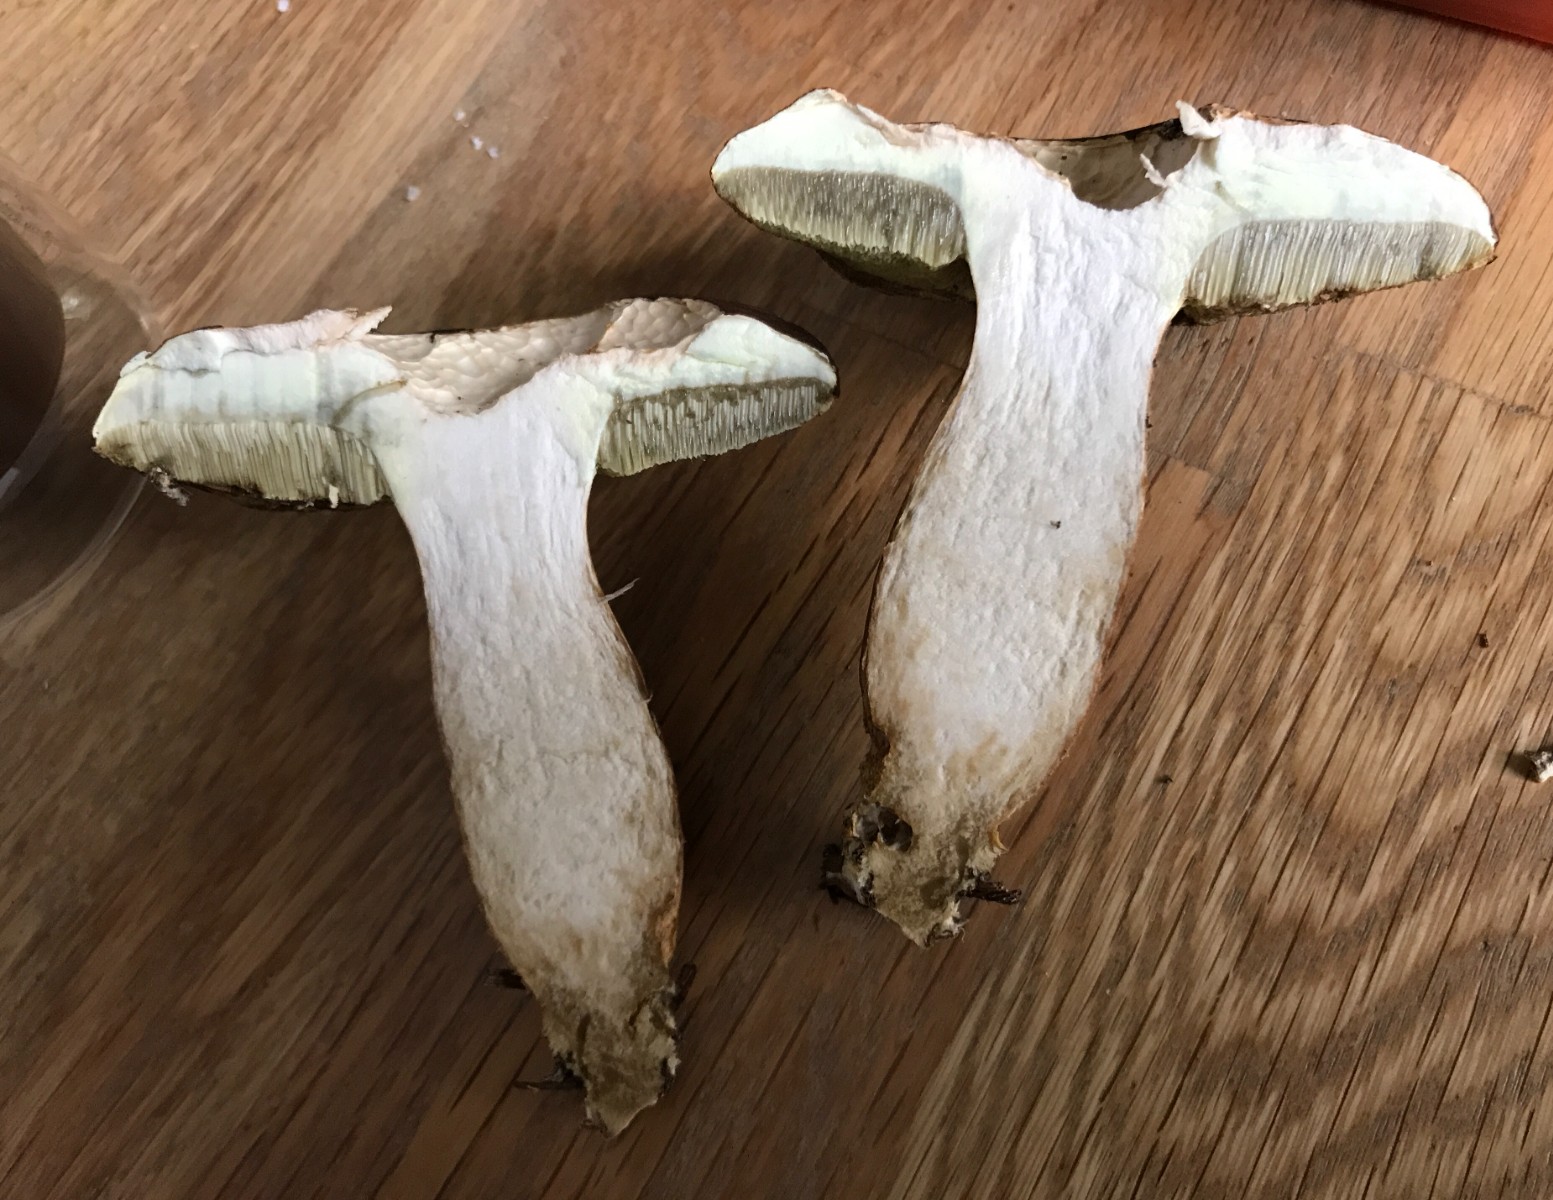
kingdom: Fungi
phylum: Basidiomycota
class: Agaricomycetes
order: Boletales
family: Boletaceae
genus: Imleria
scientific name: Imleria badia
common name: brunstokket rørhat
